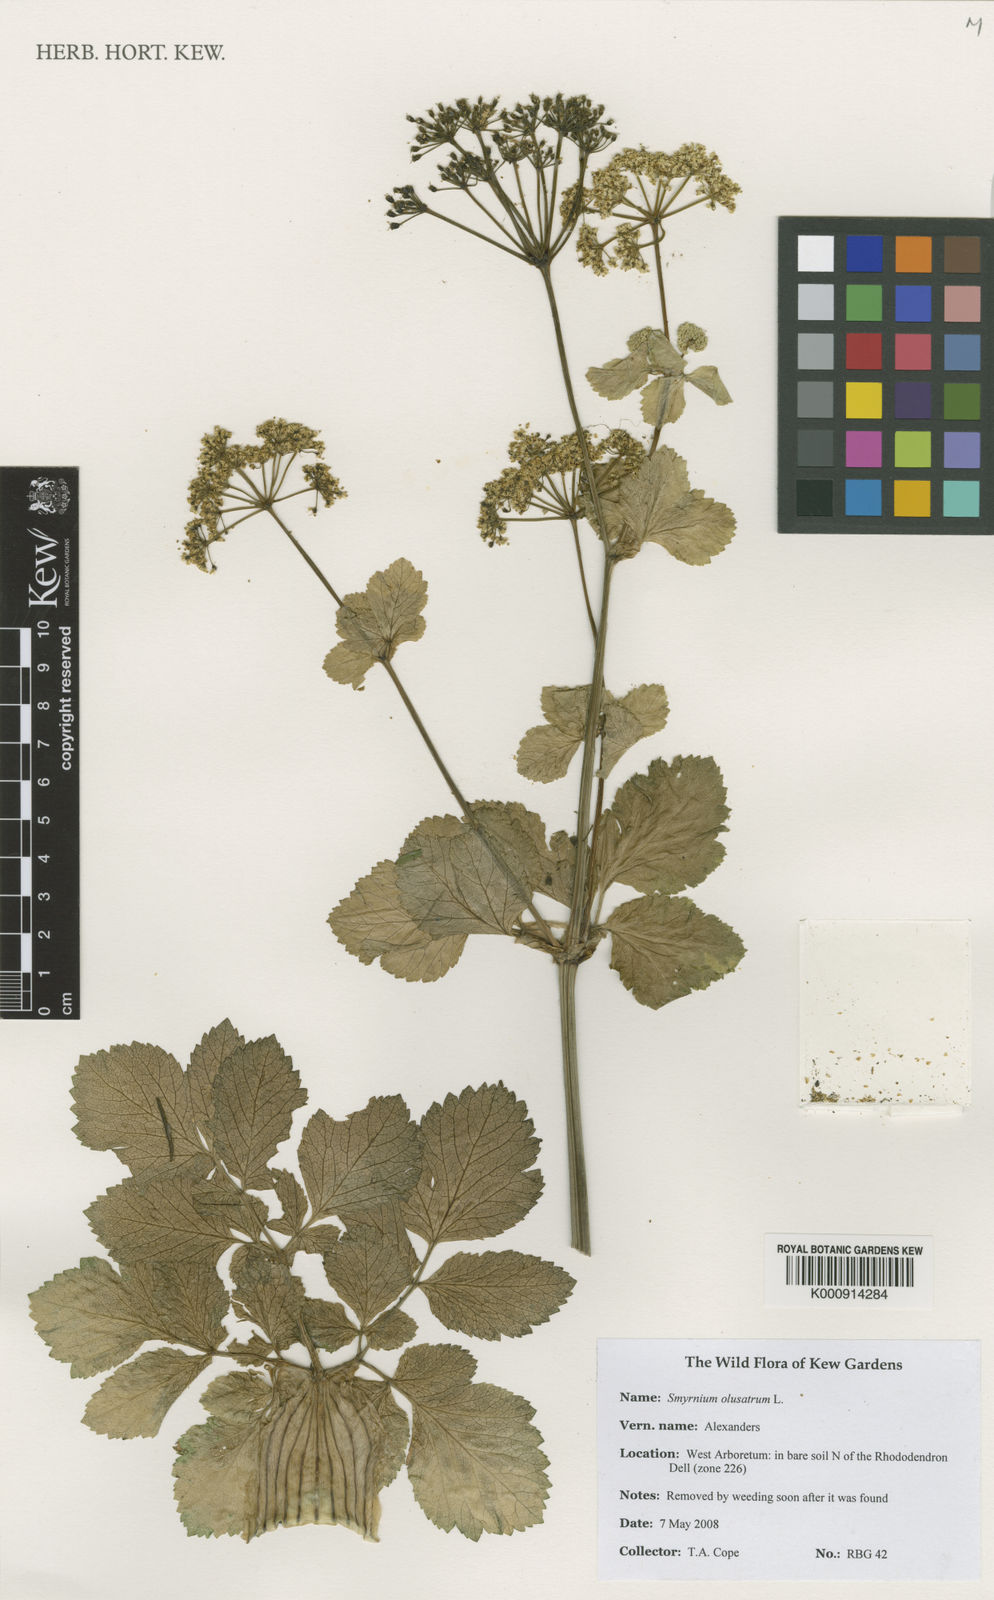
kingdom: Plantae
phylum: Tracheophyta
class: Magnoliopsida
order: Apiales
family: Apiaceae
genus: Smyrnium
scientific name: Smyrnium olusatrum
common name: Alexanders
